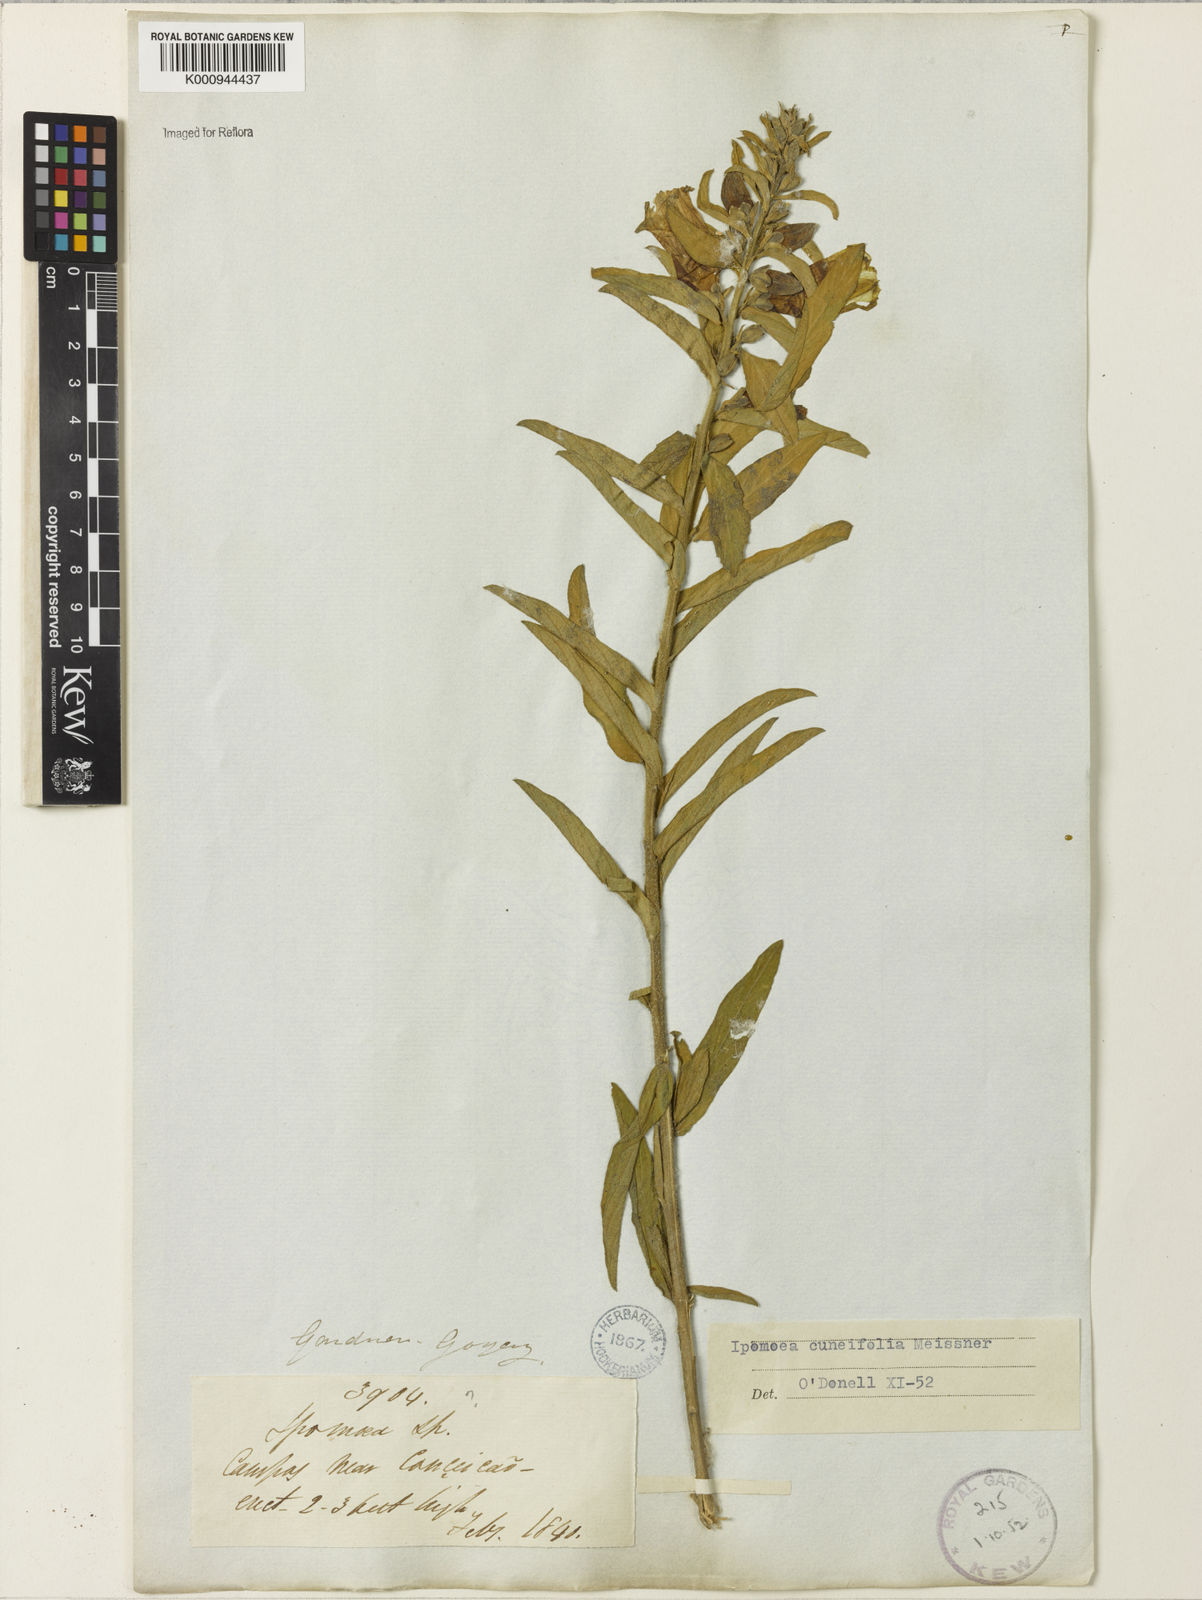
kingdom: Plantae
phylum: Tracheophyta
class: Magnoliopsida
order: Solanales
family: Convolvulaceae
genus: Ipomoea
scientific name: Ipomoea cuneifolia
